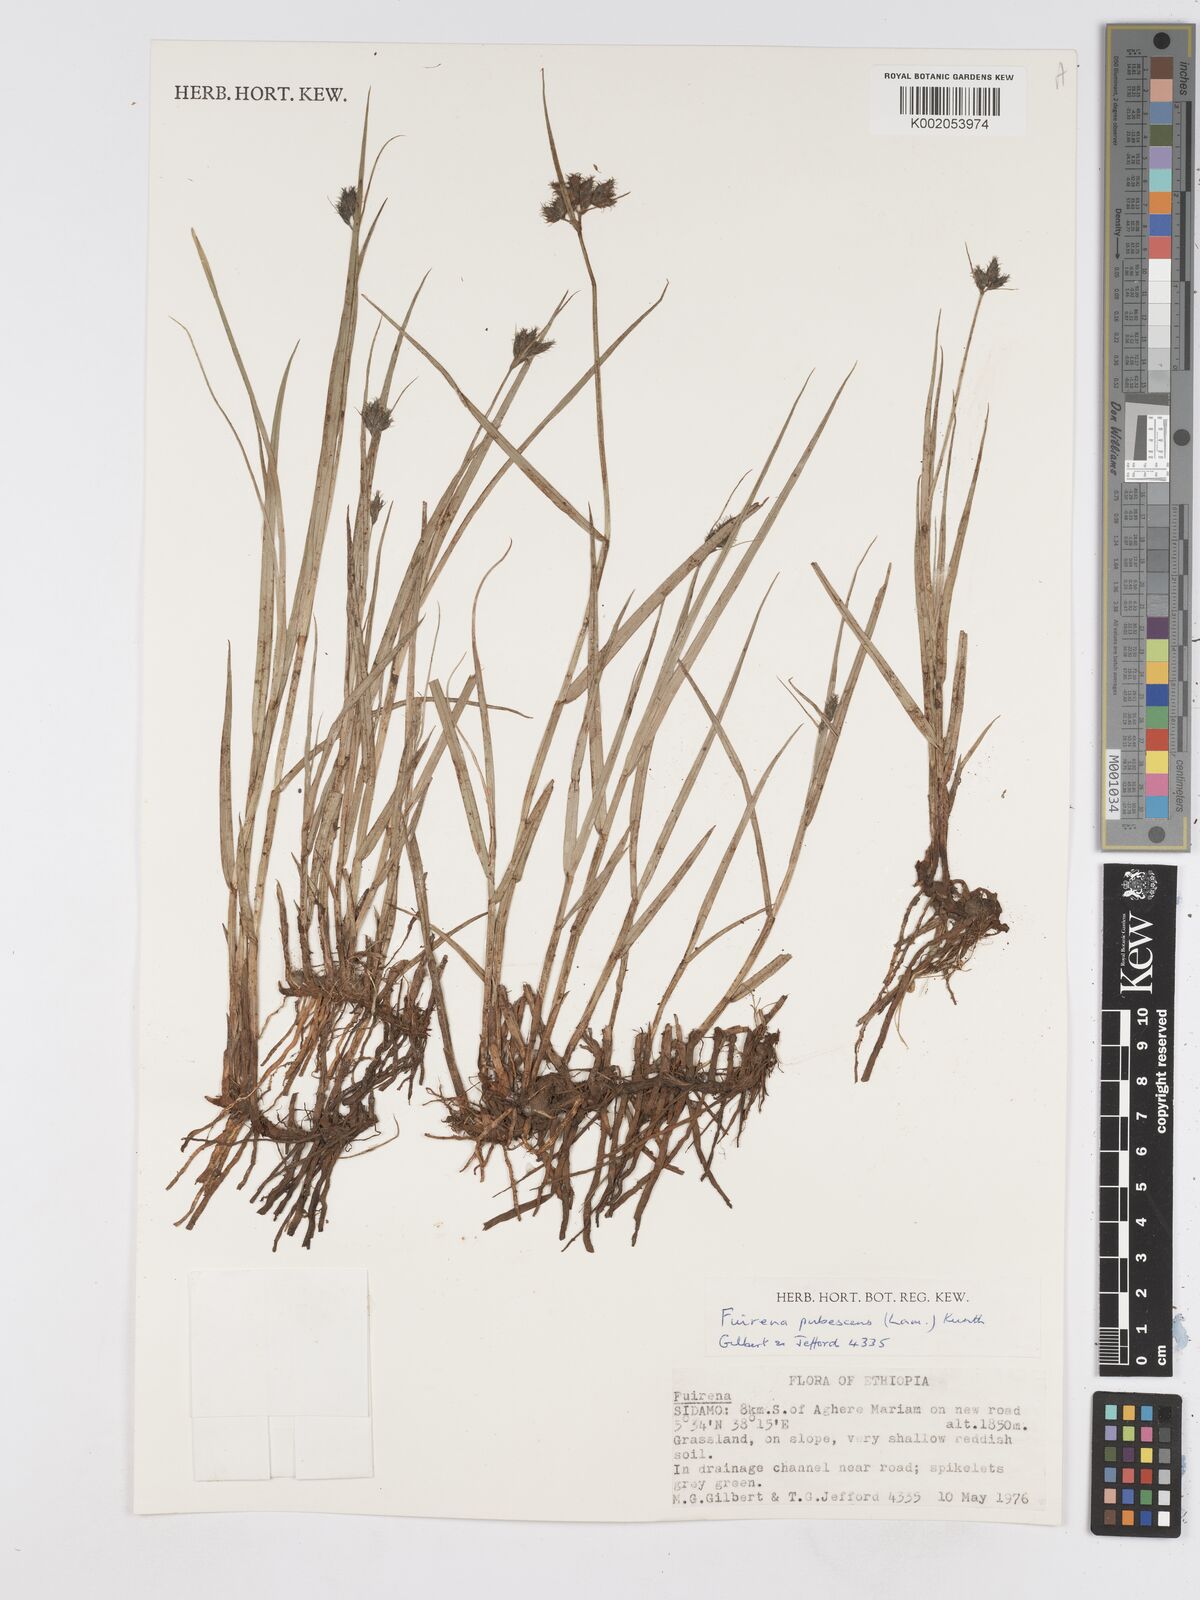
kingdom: Plantae
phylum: Tracheophyta
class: Liliopsida
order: Poales
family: Cyperaceae
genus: Fuirena
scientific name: Fuirena pachyrrhiza
